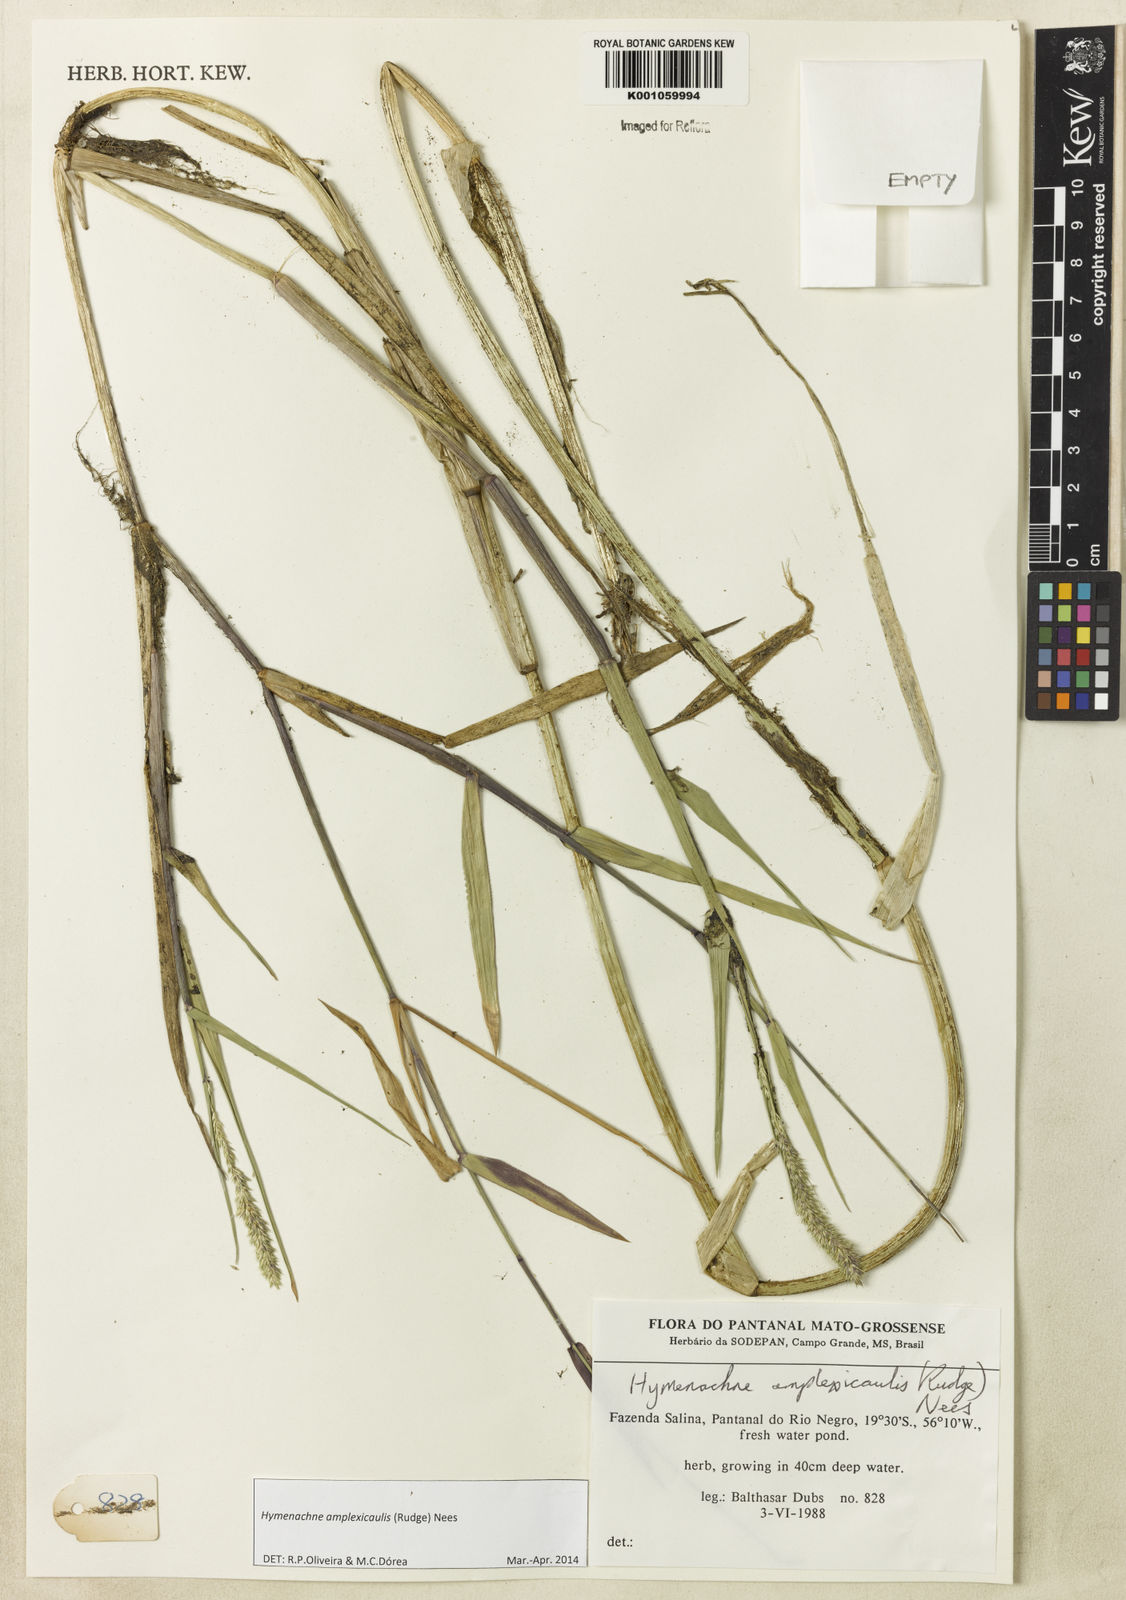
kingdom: Plantae
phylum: Tracheophyta
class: Liliopsida
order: Poales
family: Poaceae
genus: Hymenachne
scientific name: Hymenachne amplexicaulis
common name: Olive hymenachne
